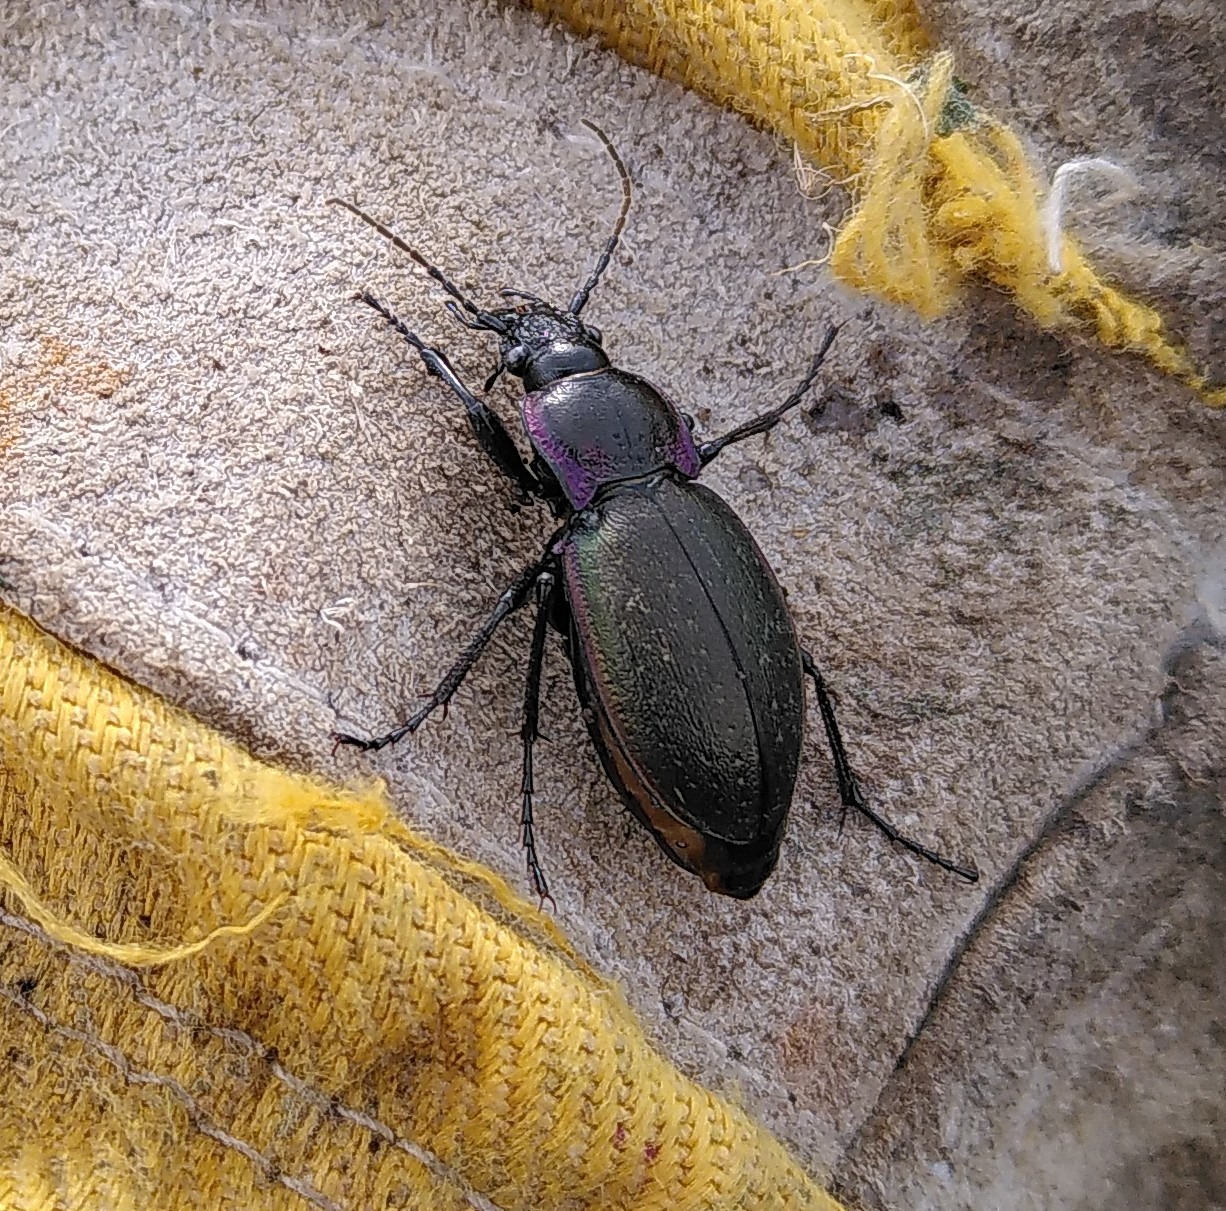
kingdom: Animalia
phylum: Arthropoda
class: Insecta
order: Coleoptera
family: Carabidae
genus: Carabus
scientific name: Carabus nemoralis
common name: Kratløber
